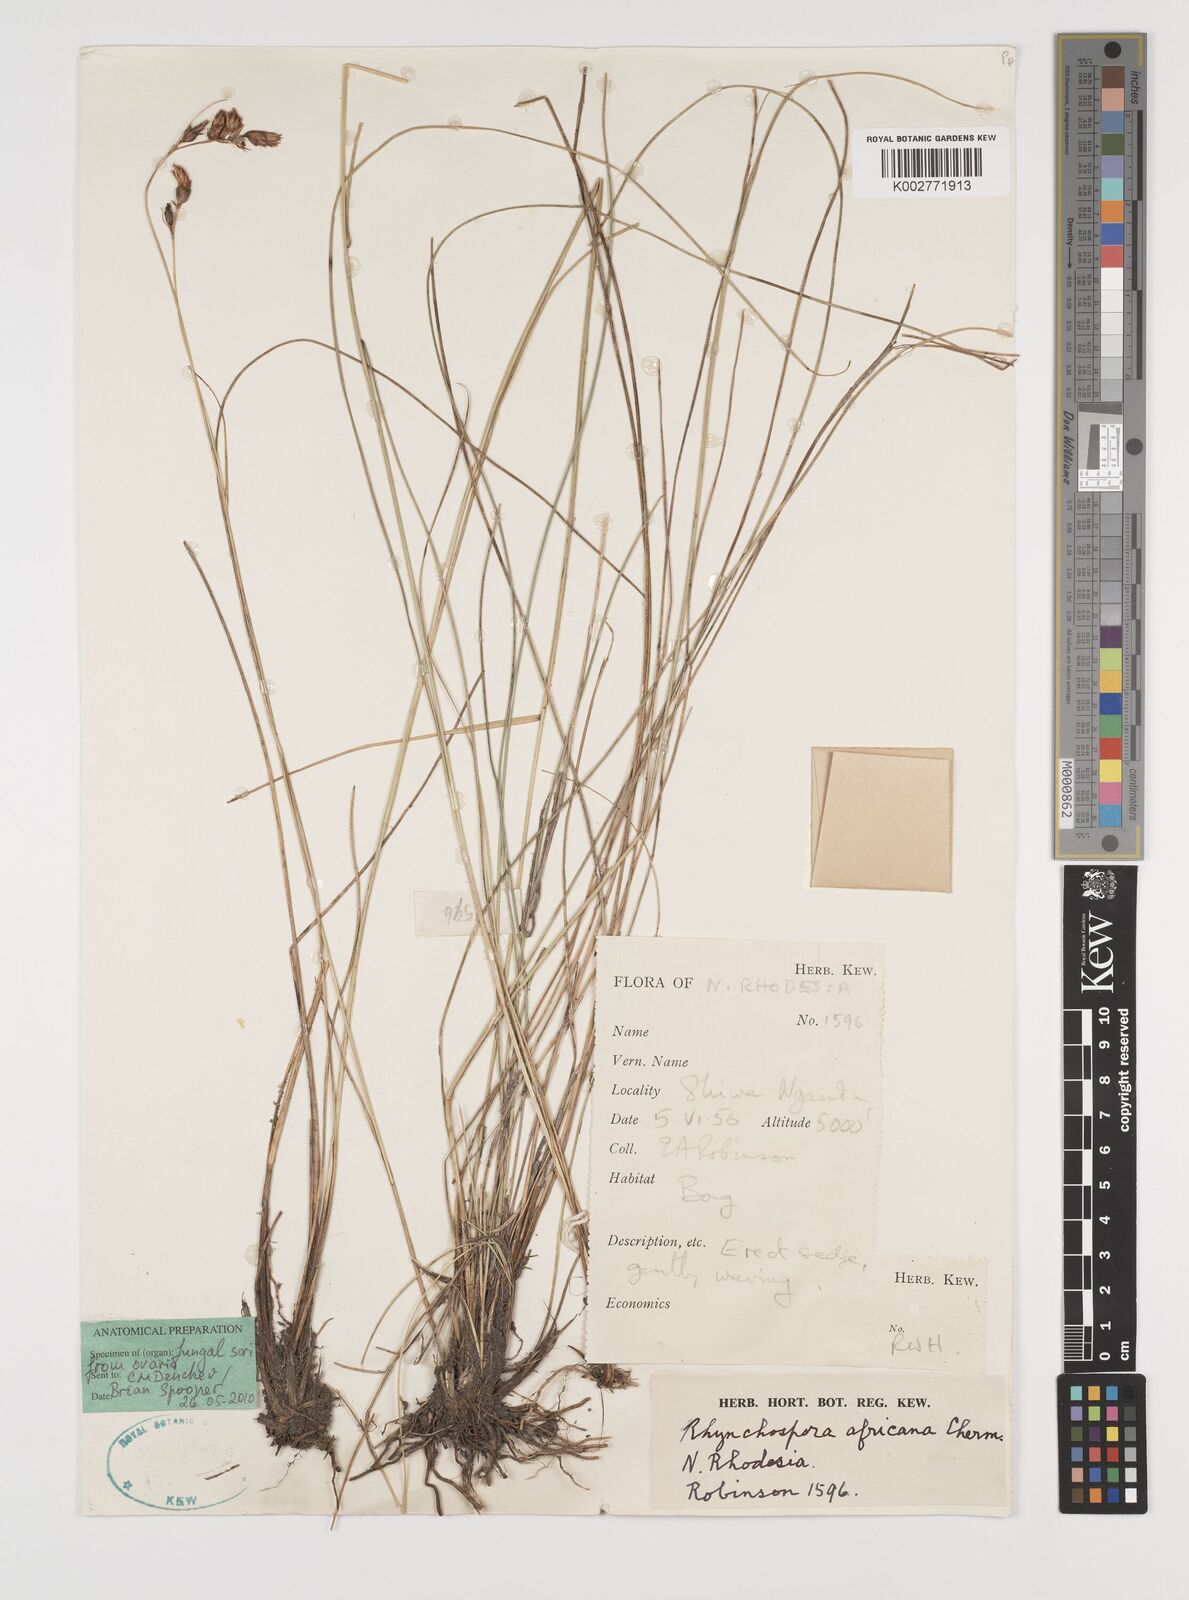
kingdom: Plantae
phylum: Tracheophyta
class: Liliopsida
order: Poales
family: Cyperaceae
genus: Rhynchospora
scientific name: Rhynchospora angolensis
